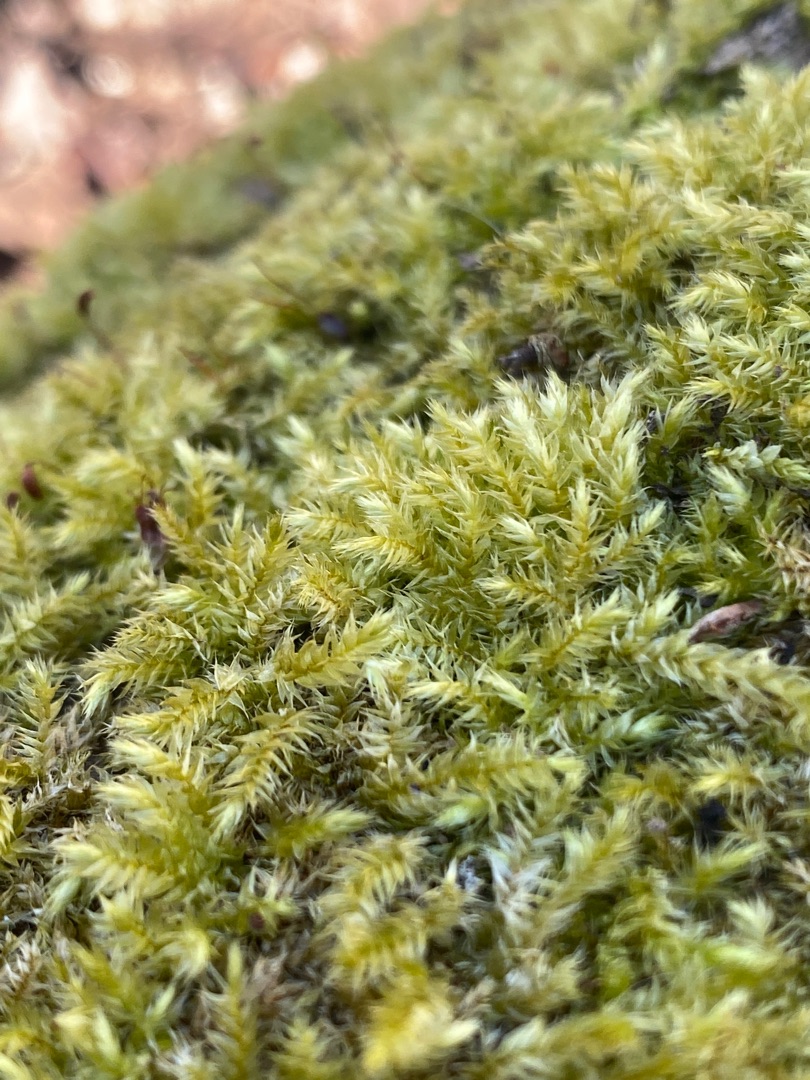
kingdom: Plantae
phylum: Bryophyta
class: Bryopsida
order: Hypnales
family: Brachytheciaceae
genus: Brachythecium
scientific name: Brachythecium rutabulum
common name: Almindelig kortkapsel
